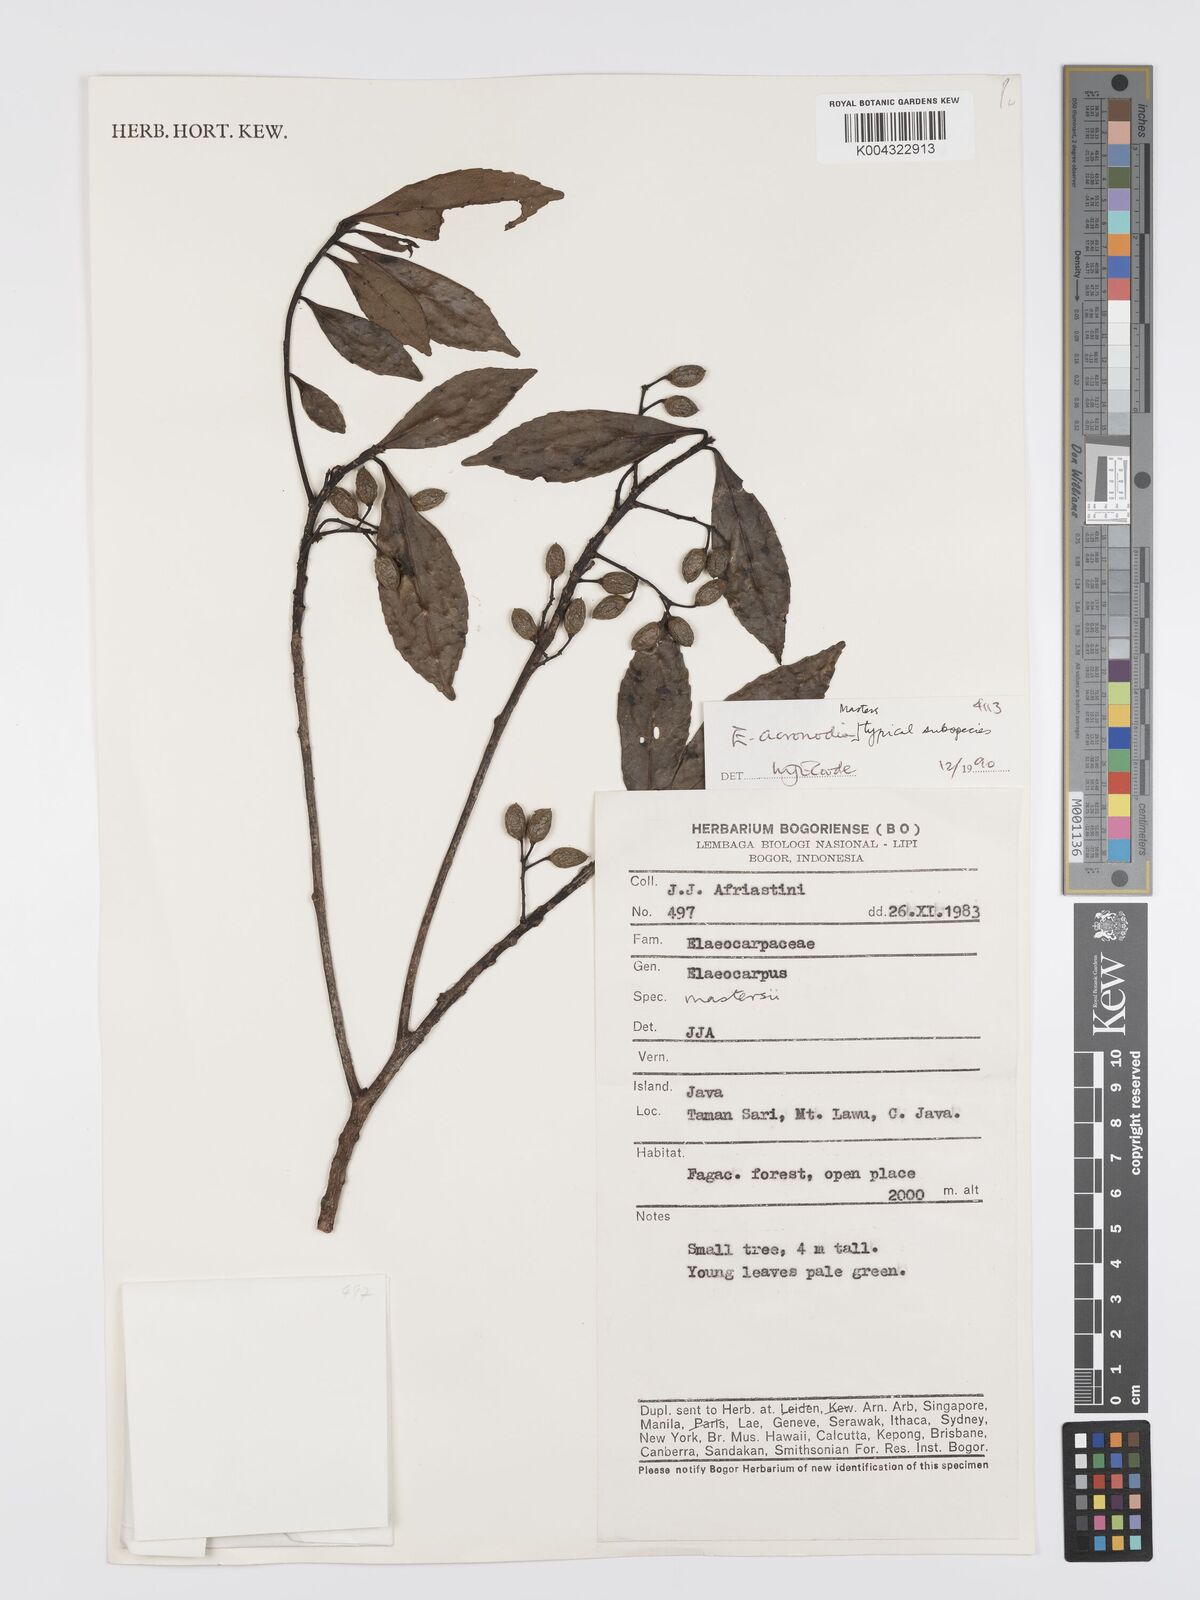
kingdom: Plantae
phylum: Tracheophyta
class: Magnoliopsida
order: Oxalidales
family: Elaeocarpaceae
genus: Elaeocarpus
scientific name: Elaeocarpus acronodia
